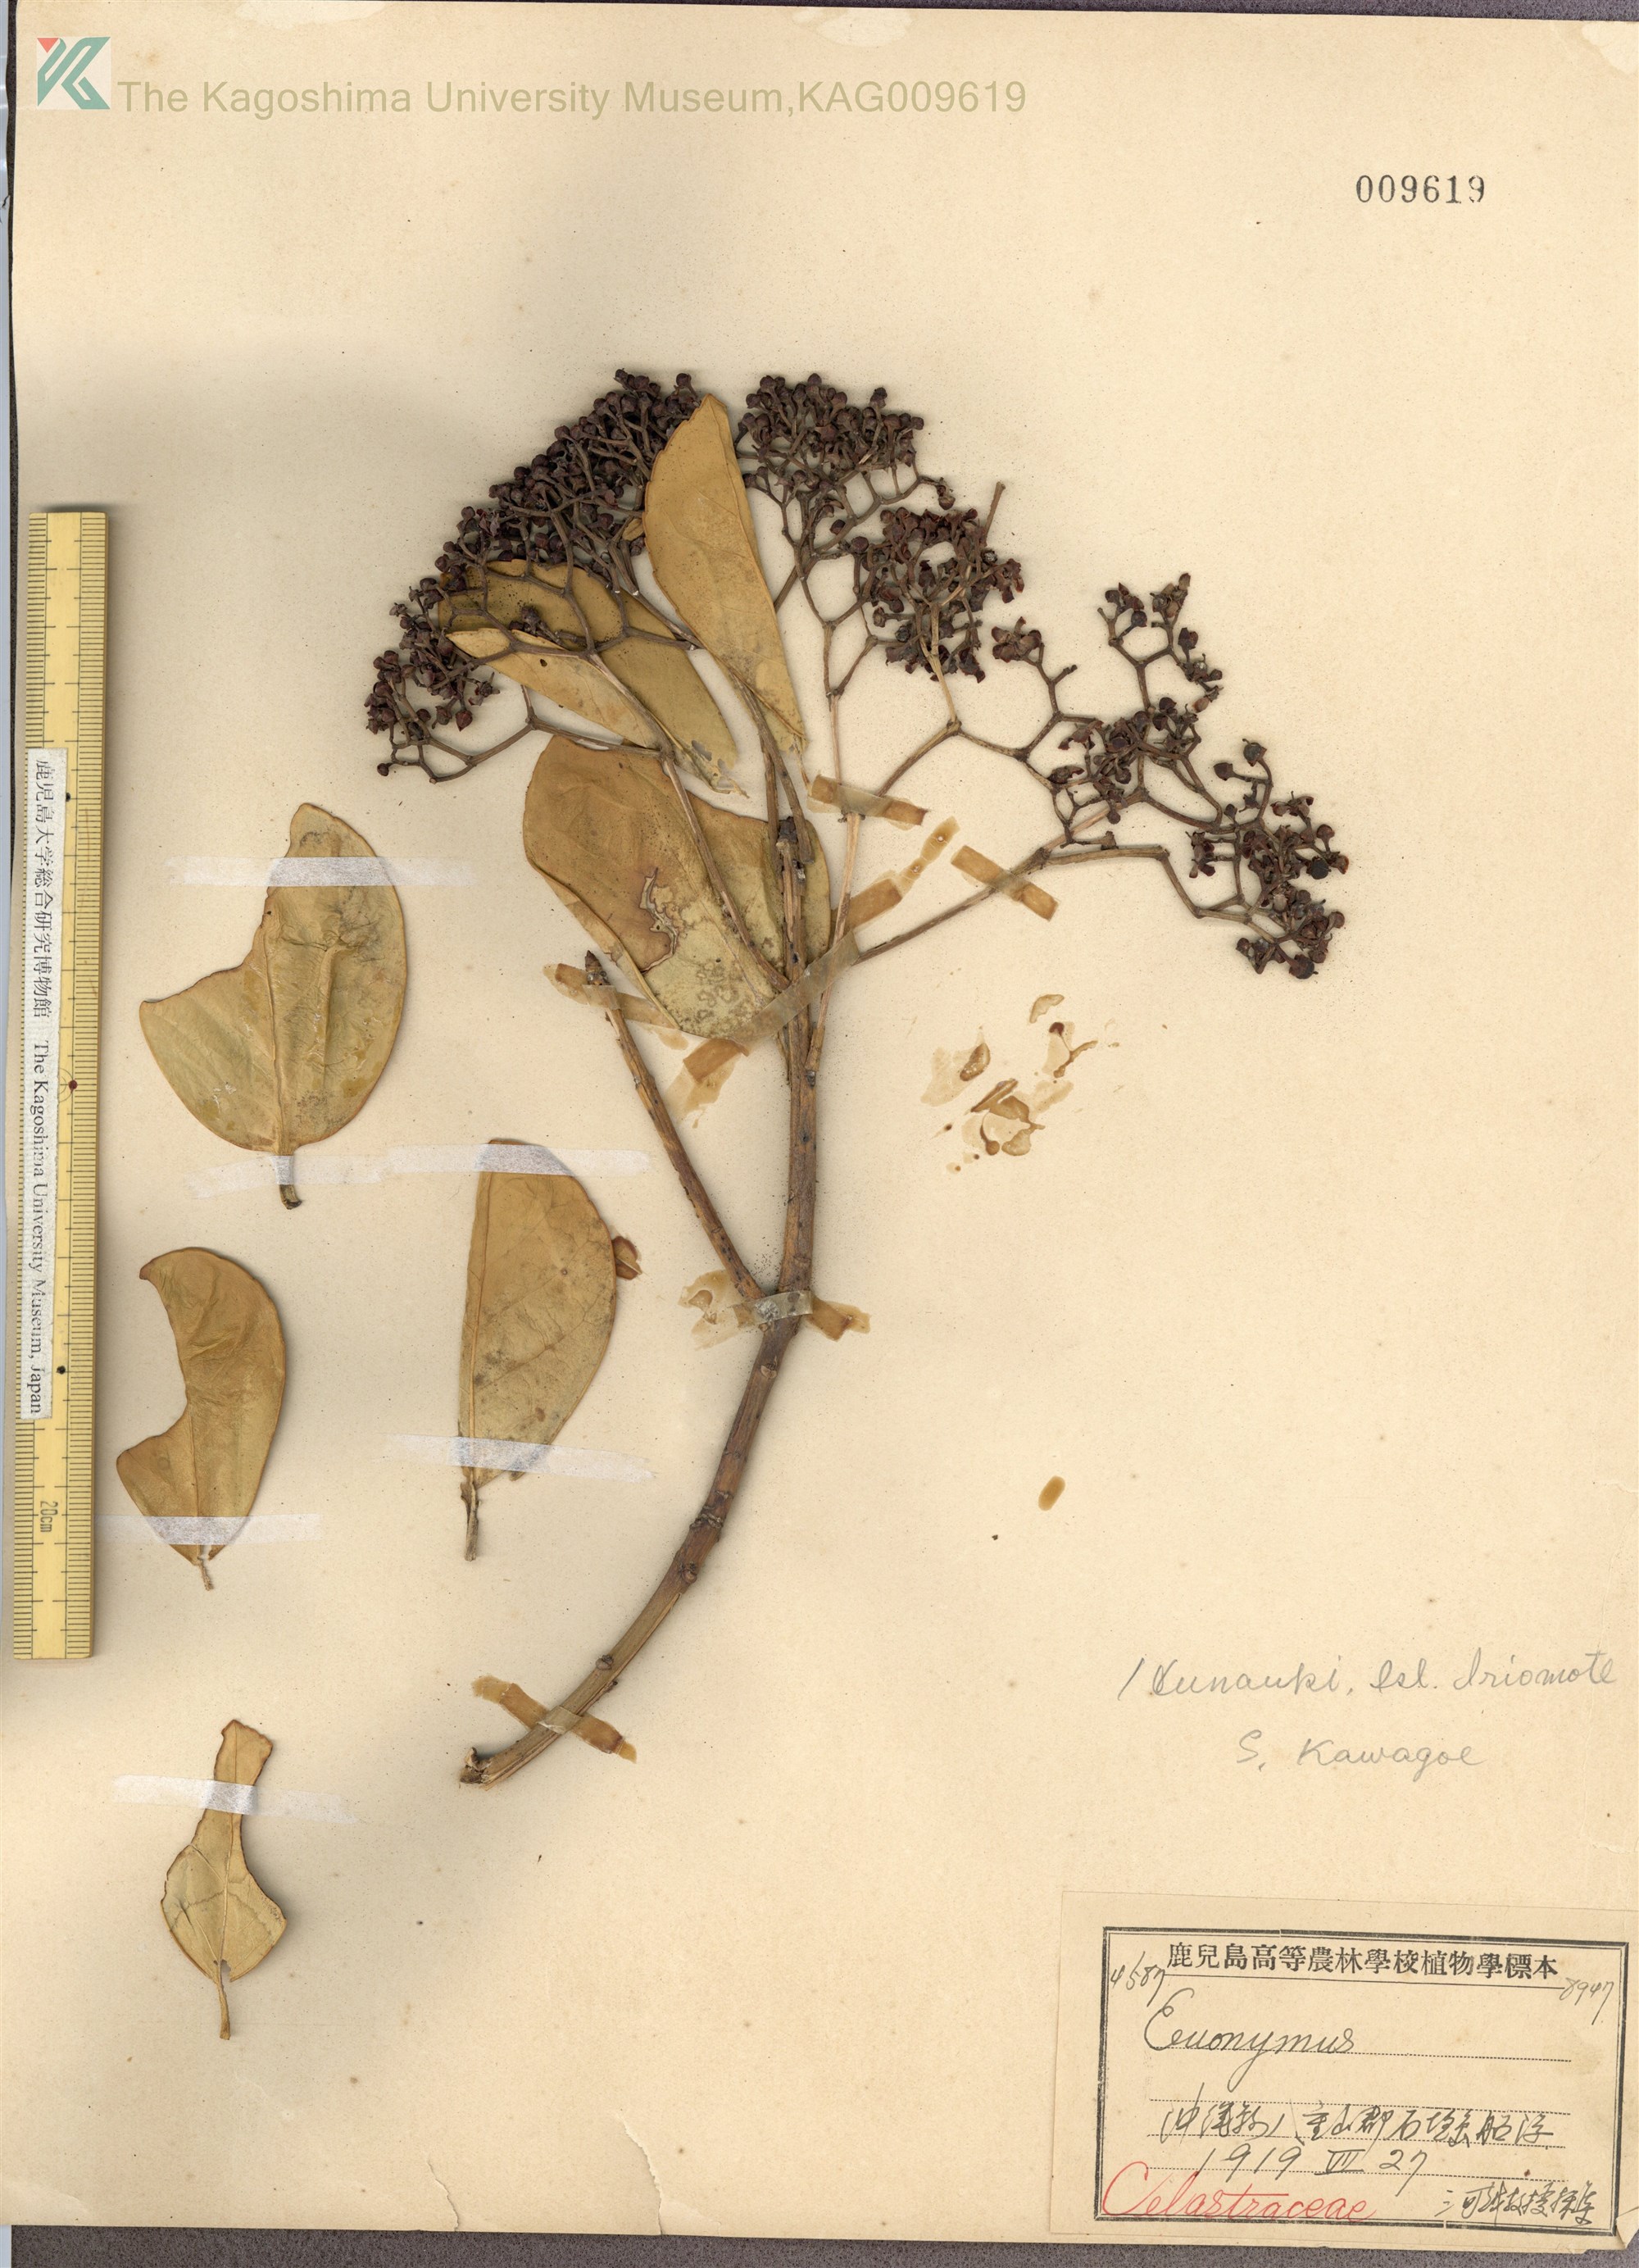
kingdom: Plantae
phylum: Tracheophyta
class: Magnoliopsida
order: Celastrales
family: Celastraceae
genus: Euonymus
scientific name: Euonymus japonicus
